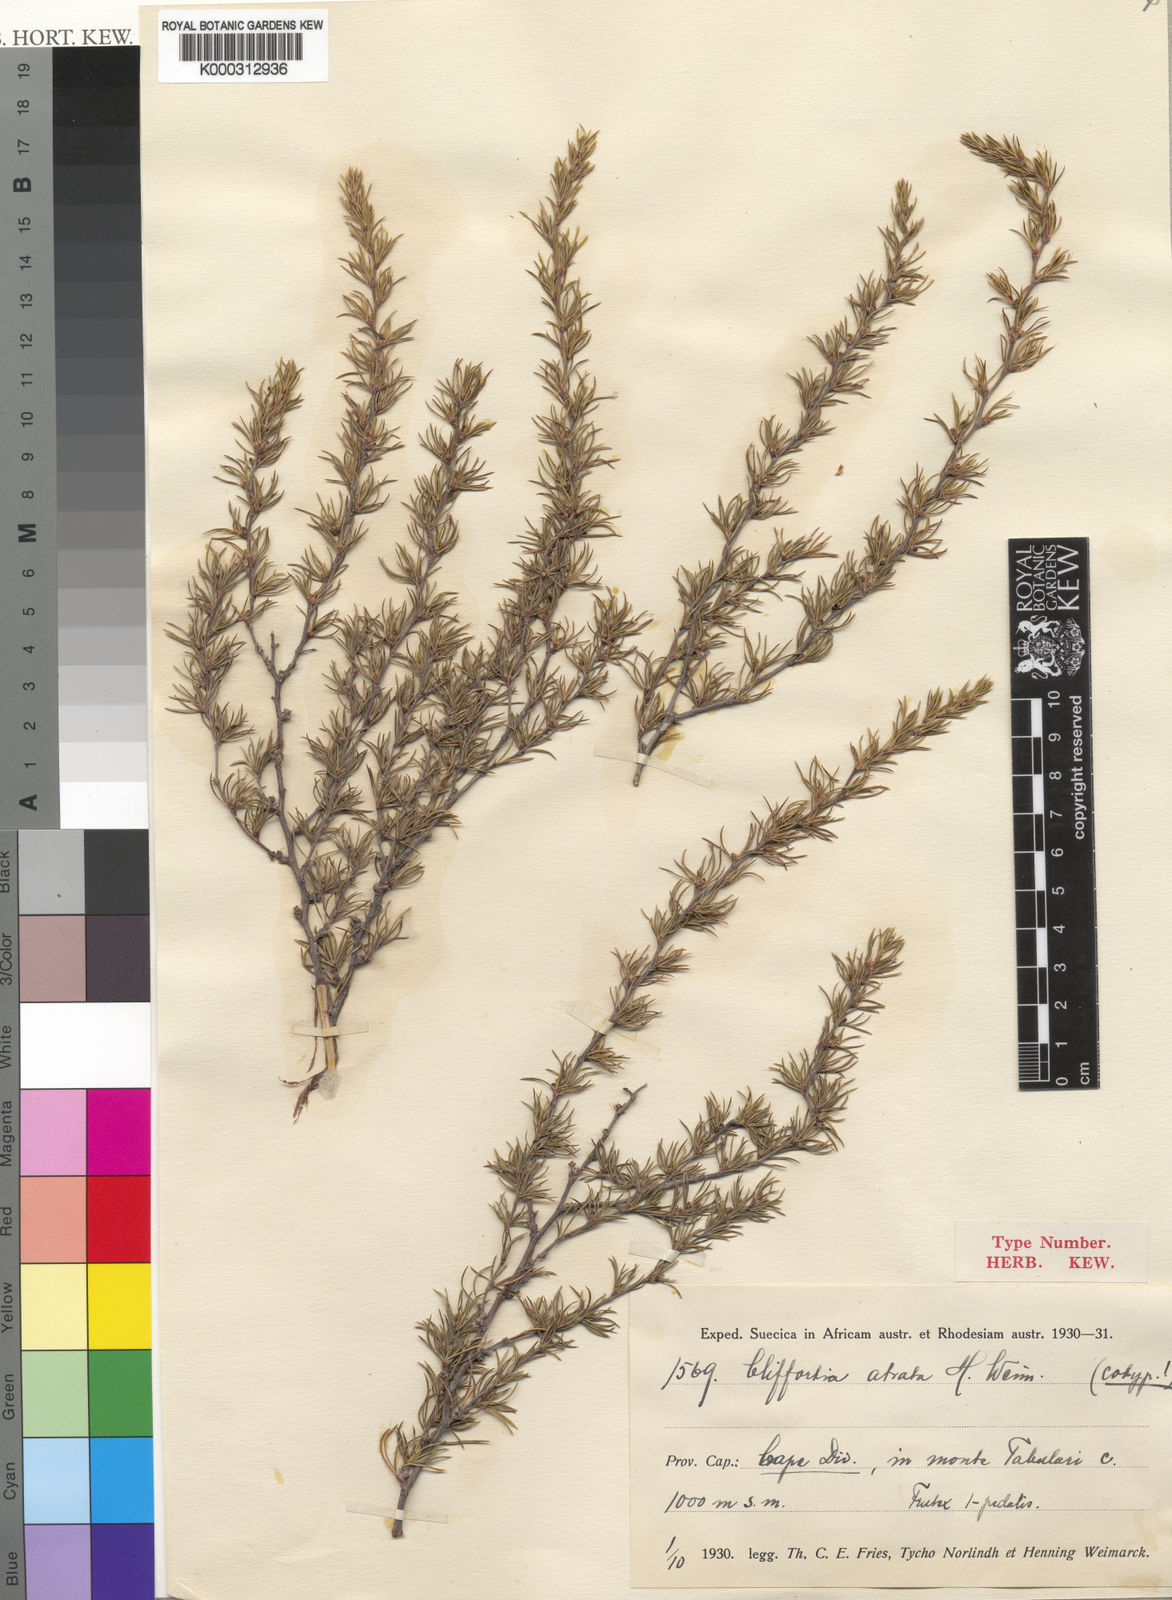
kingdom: Plantae
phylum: Tracheophyta
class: Magnoliopsida
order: Rosales
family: Rosaceae
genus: Cliffortia
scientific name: Cliffortia atrata
